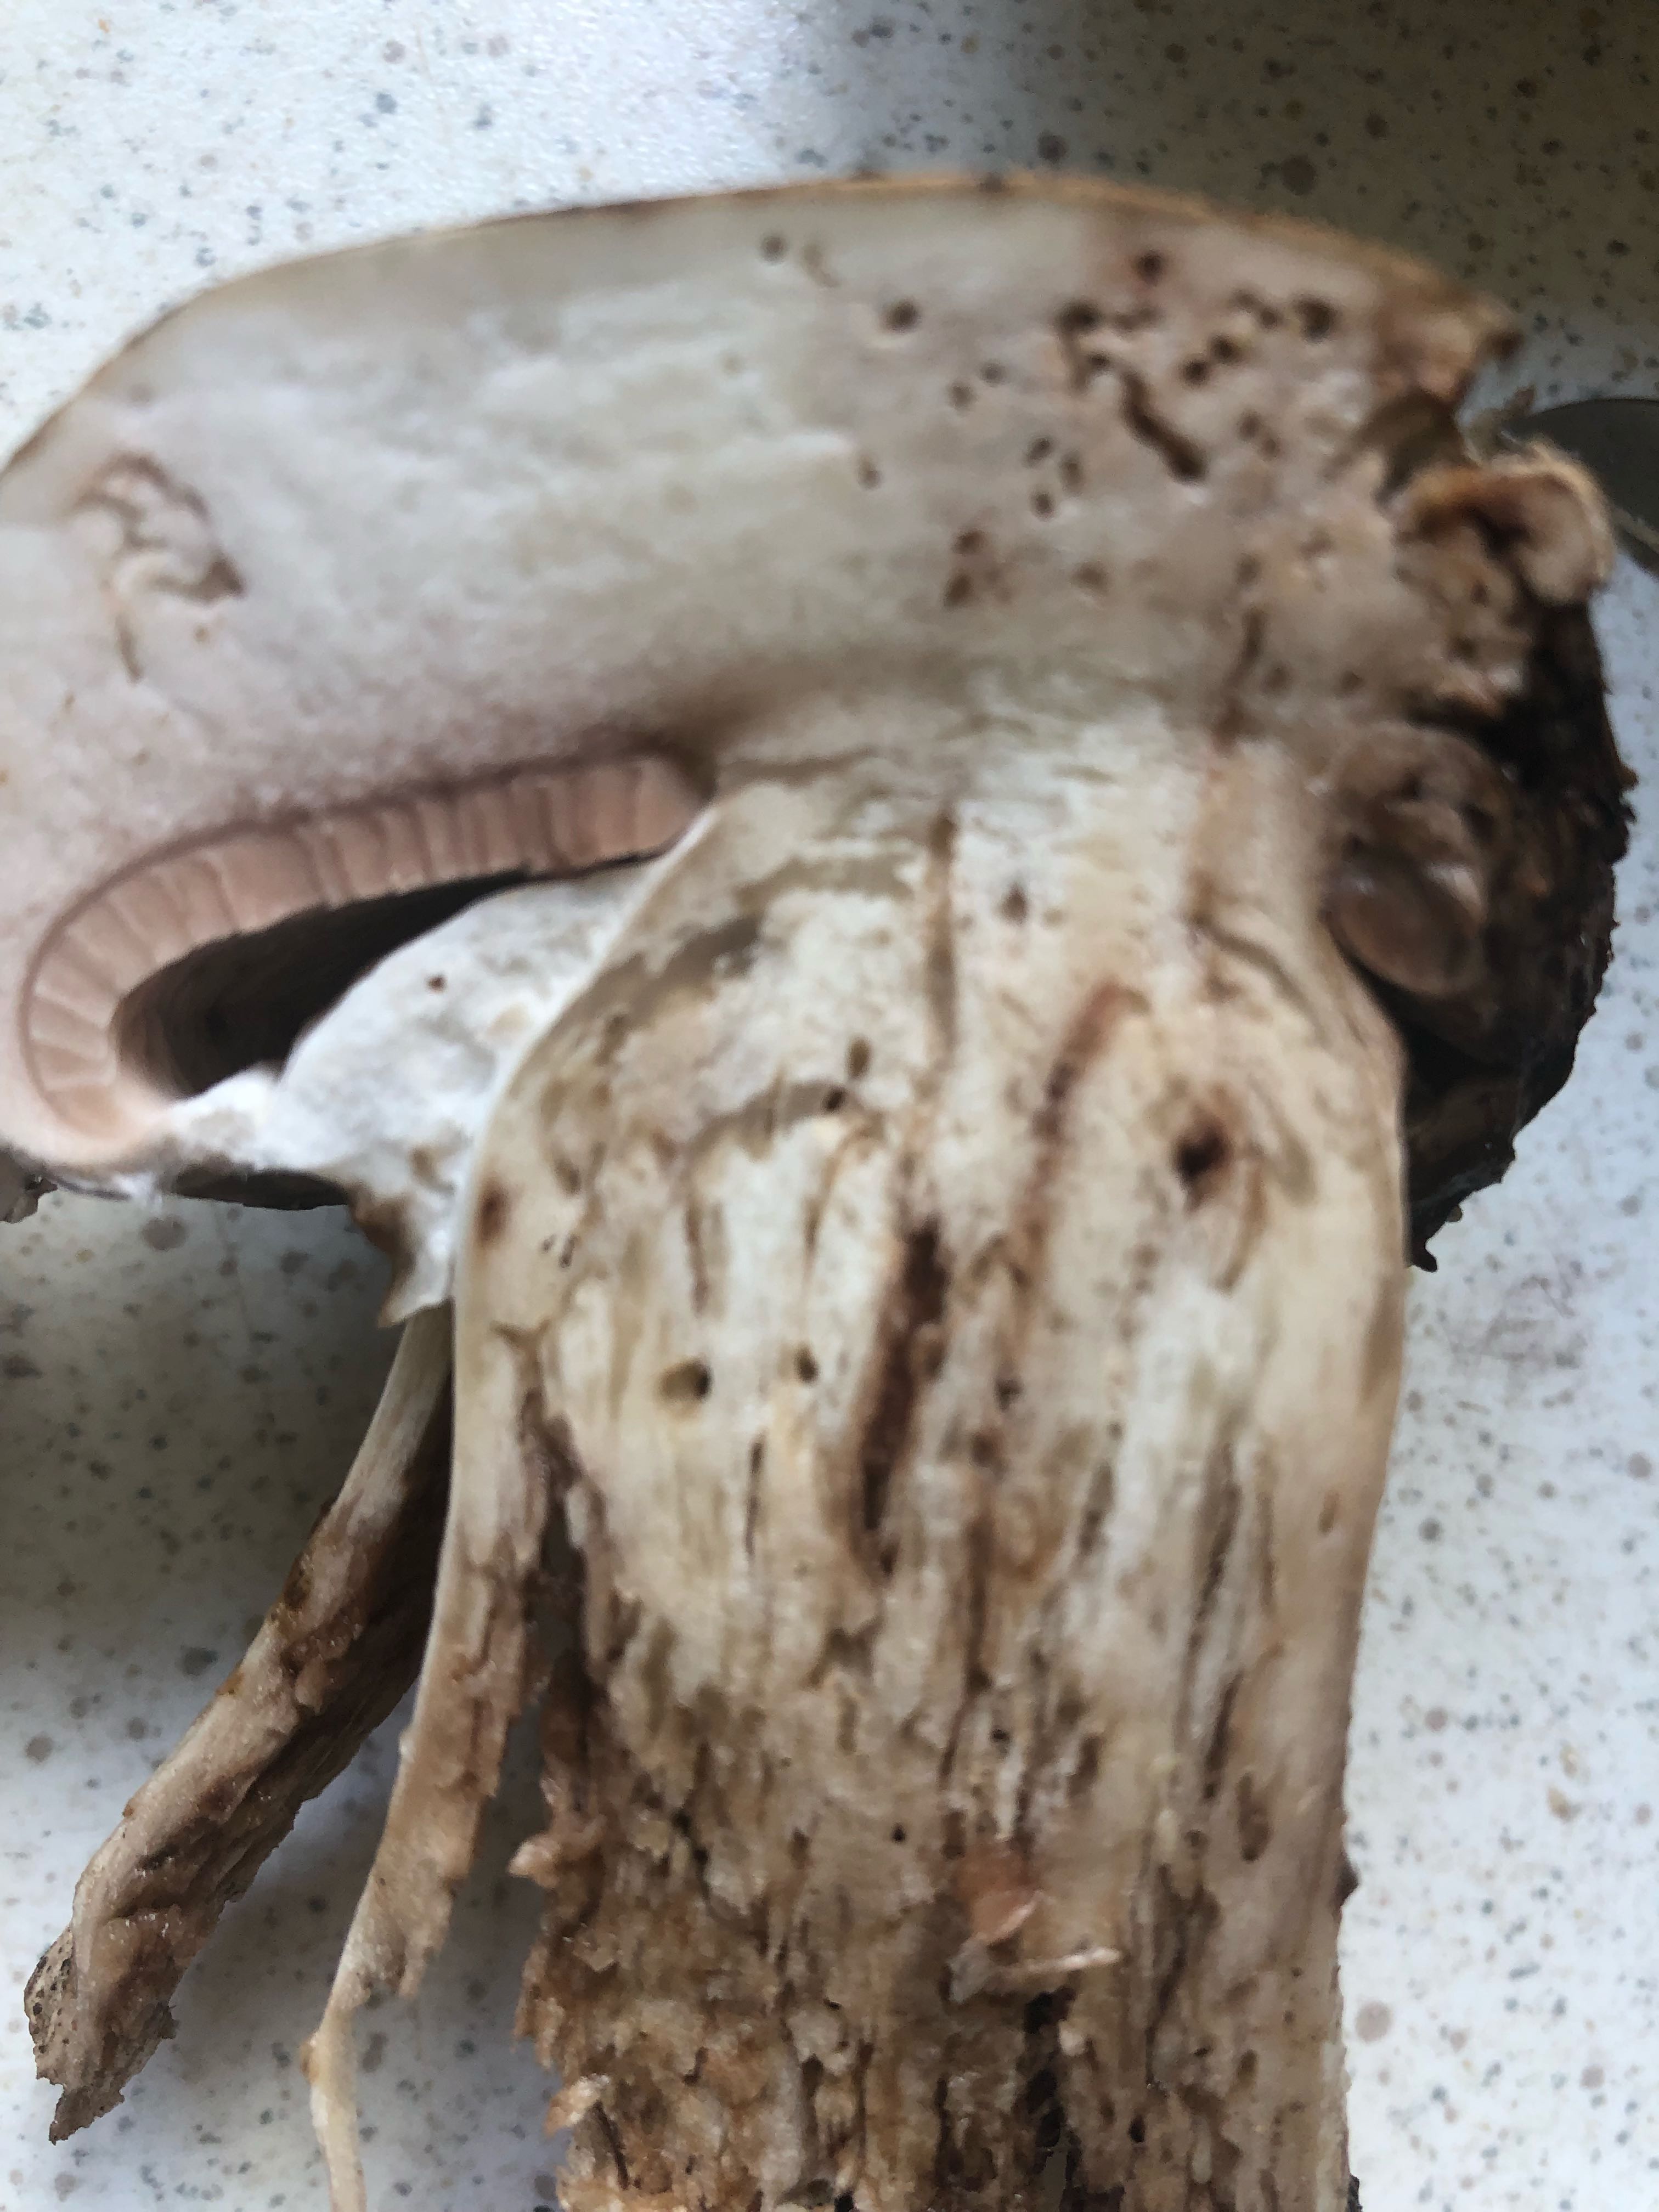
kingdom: Fungi
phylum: Basidiomycota
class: Agaricomycetes
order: Agaricales
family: Agaricaceae
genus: Agaricus
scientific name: Agaricus
